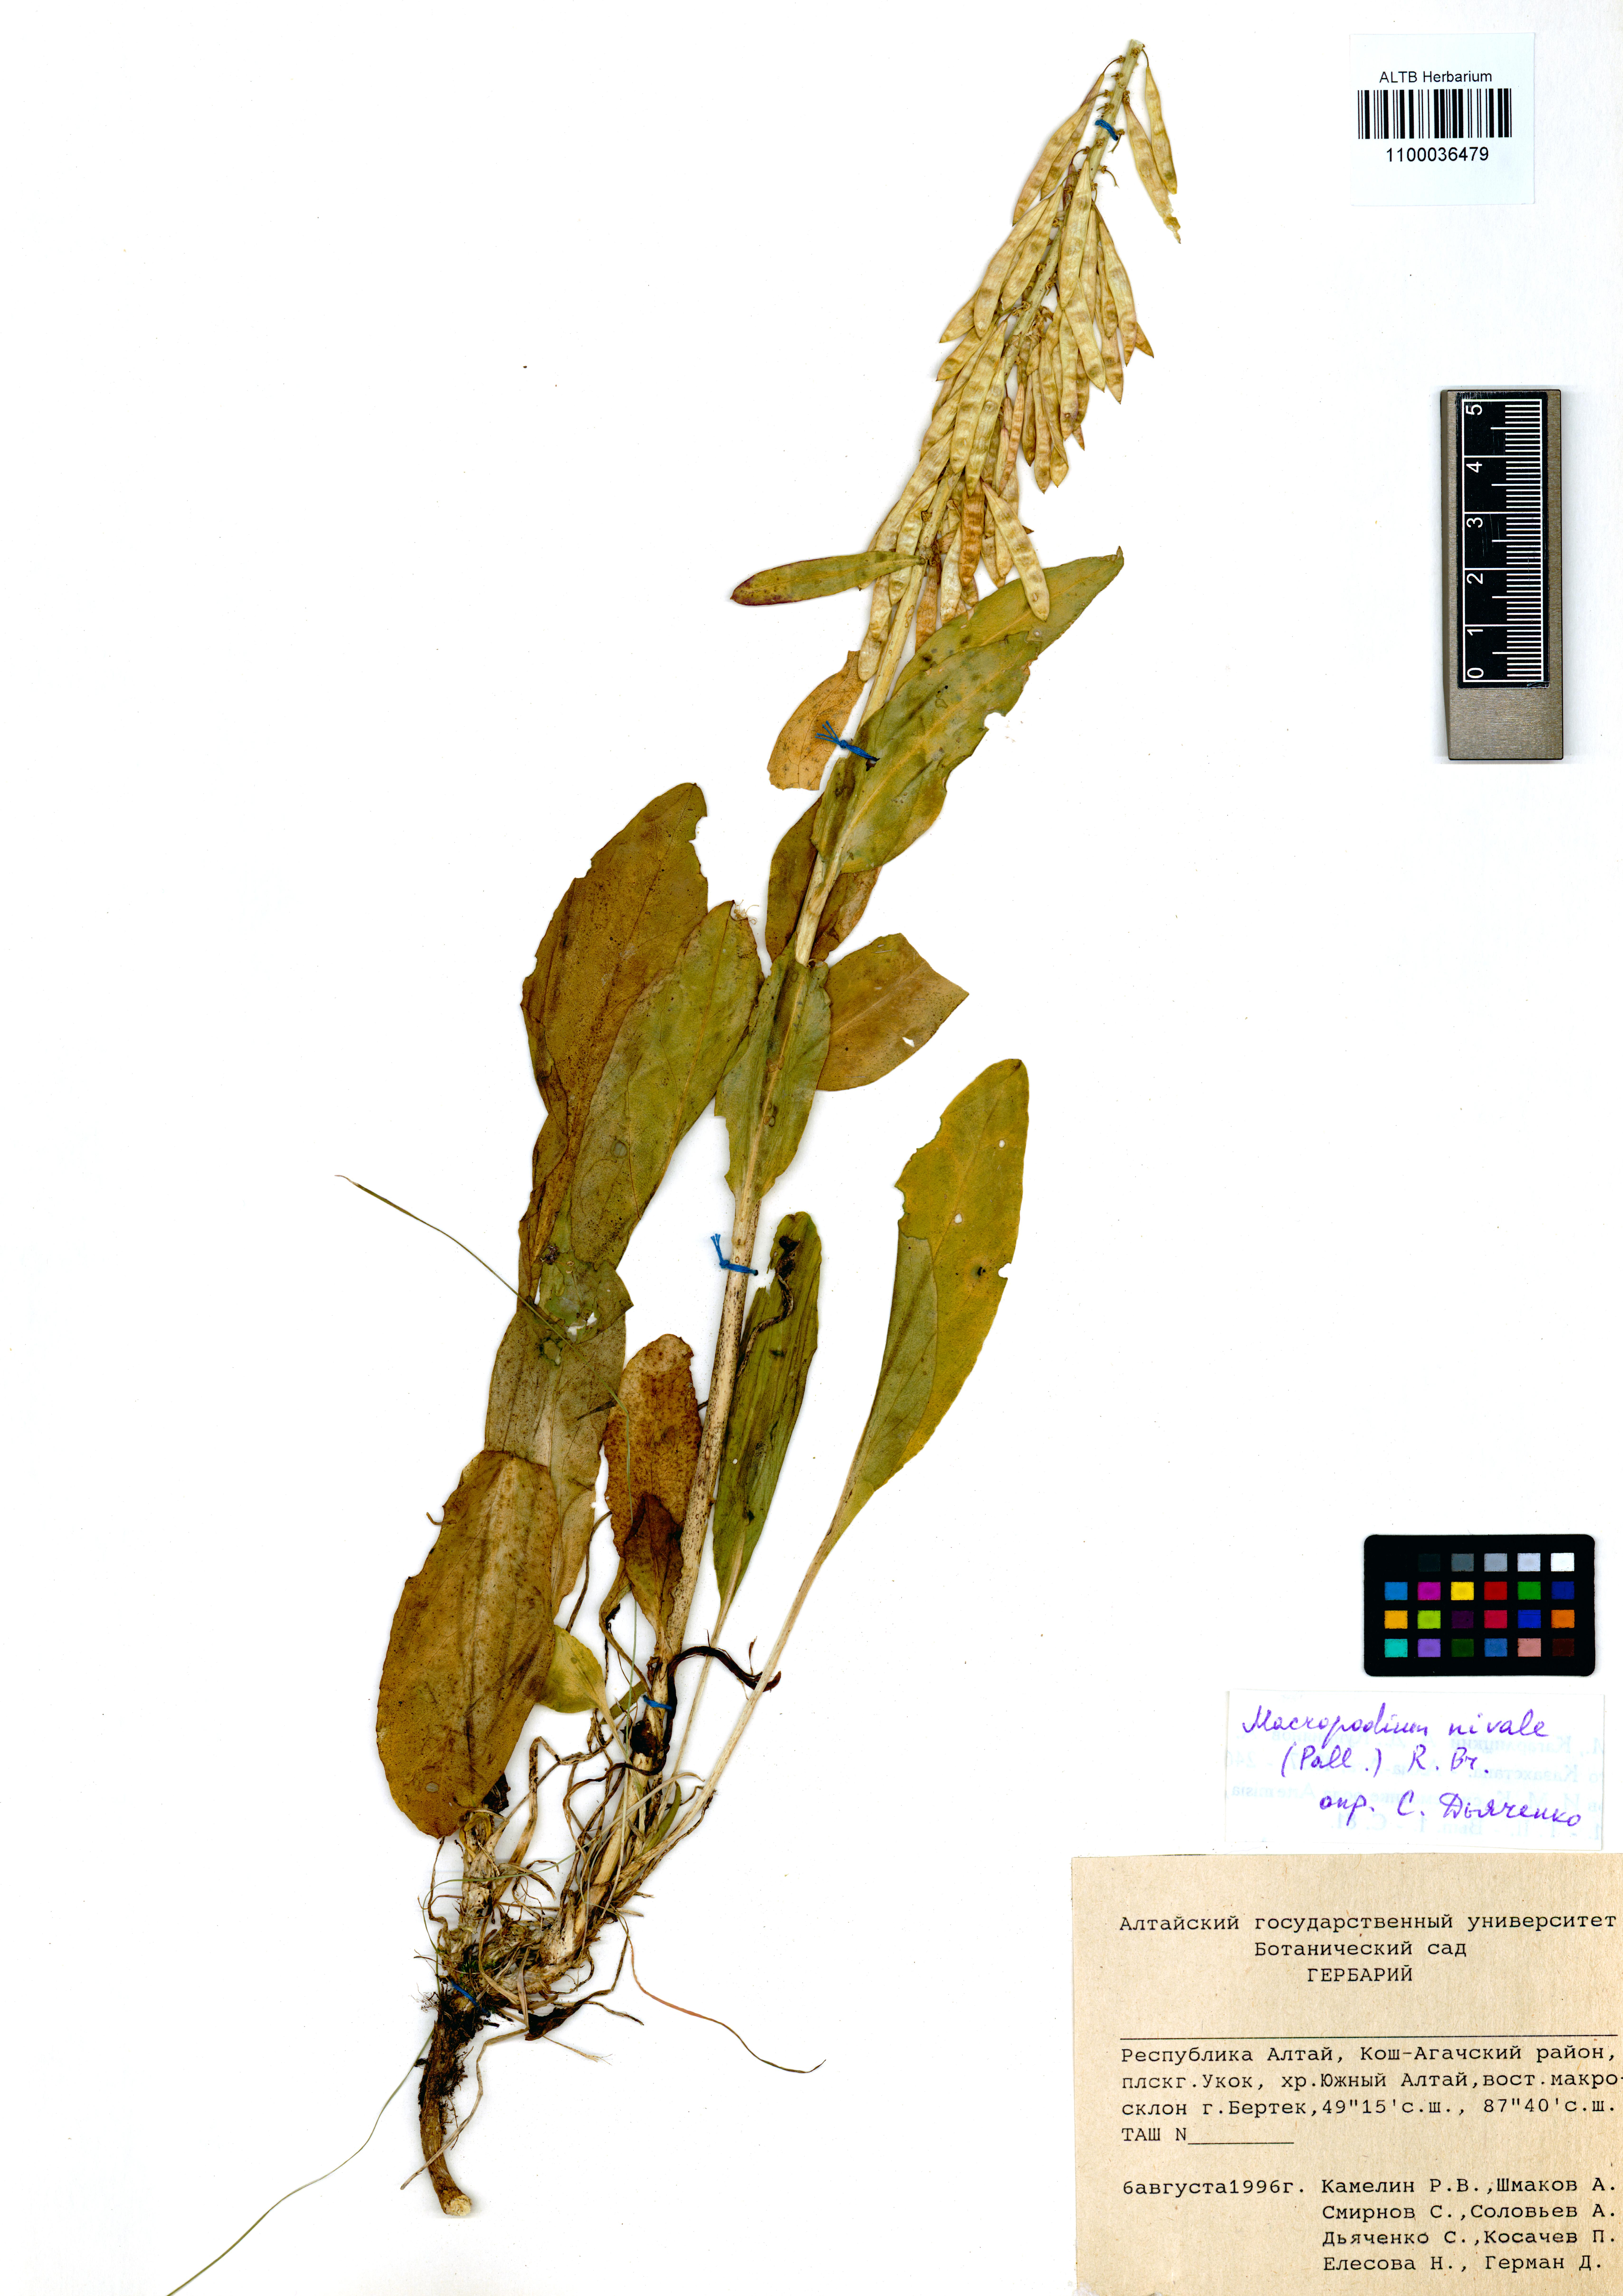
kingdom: Plantae
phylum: Tracheophyta
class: Magnoliopsida
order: Brassicales
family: Brassicaceae
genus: Macropodium
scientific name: Macropodium nivale
